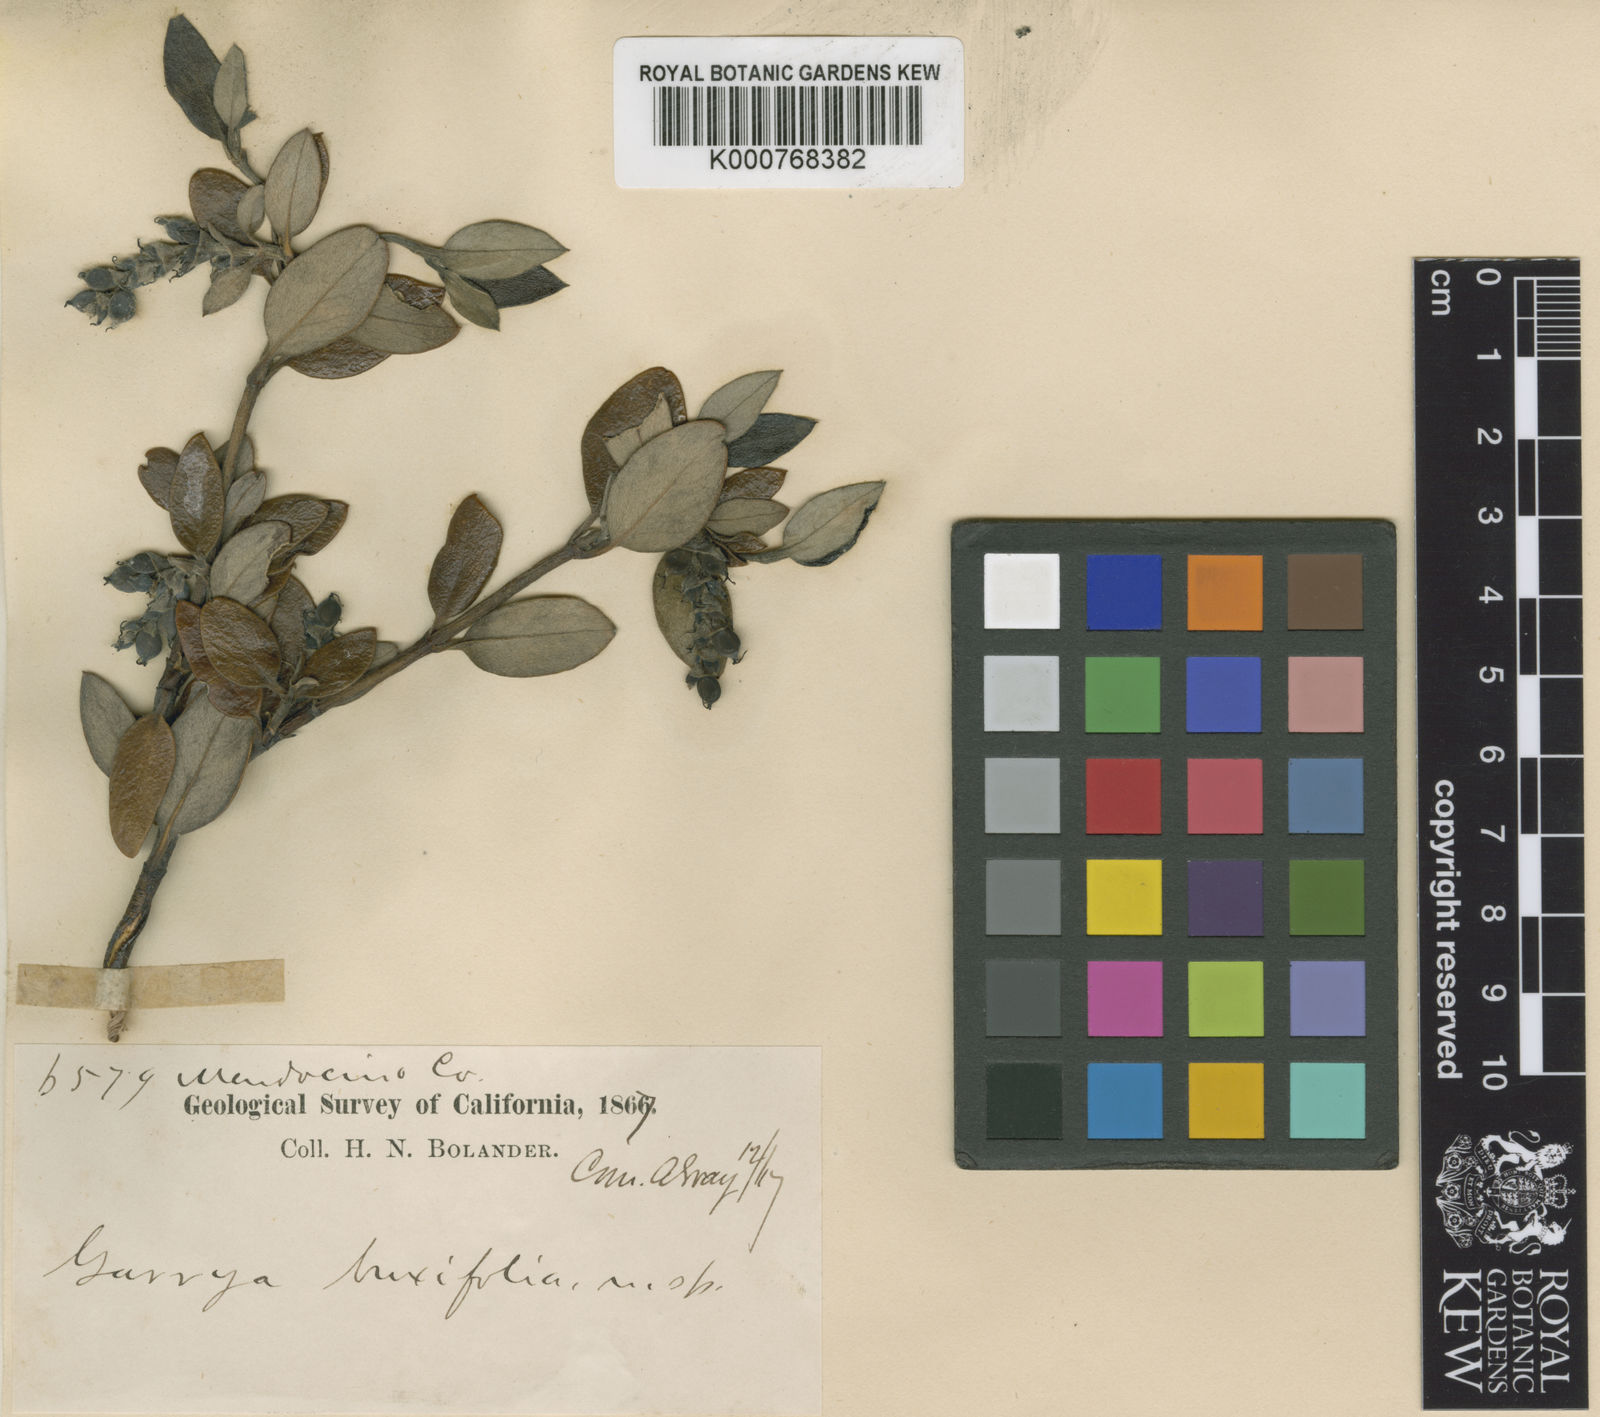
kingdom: Plantae
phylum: Tracheophyta
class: Magnoliopsida
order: Garryales
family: Garryaceae
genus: Garrya
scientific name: Garrya buxifolia
